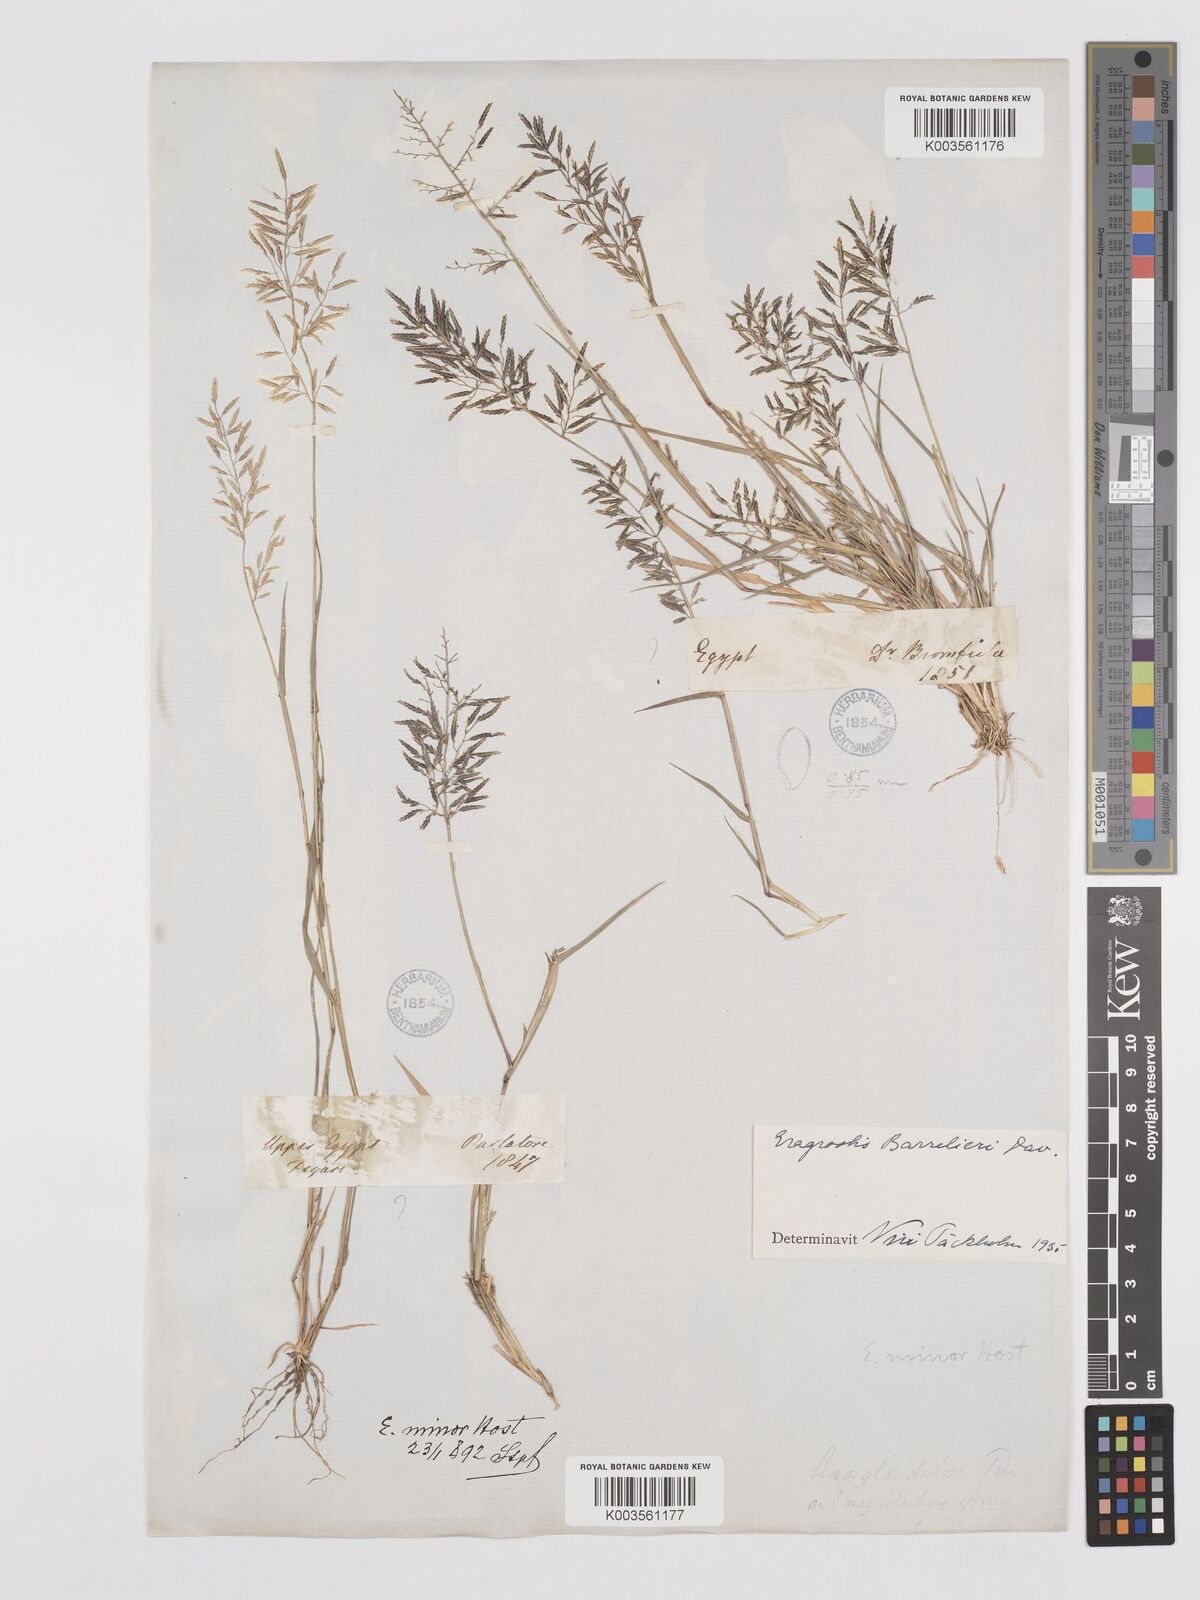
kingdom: Plantae
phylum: Tracheophyta
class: Liliopsida
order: Poales
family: Poaceae
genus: Eragrostis
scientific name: Eragrostis barrelieri
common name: Mediterranean lovegrass
